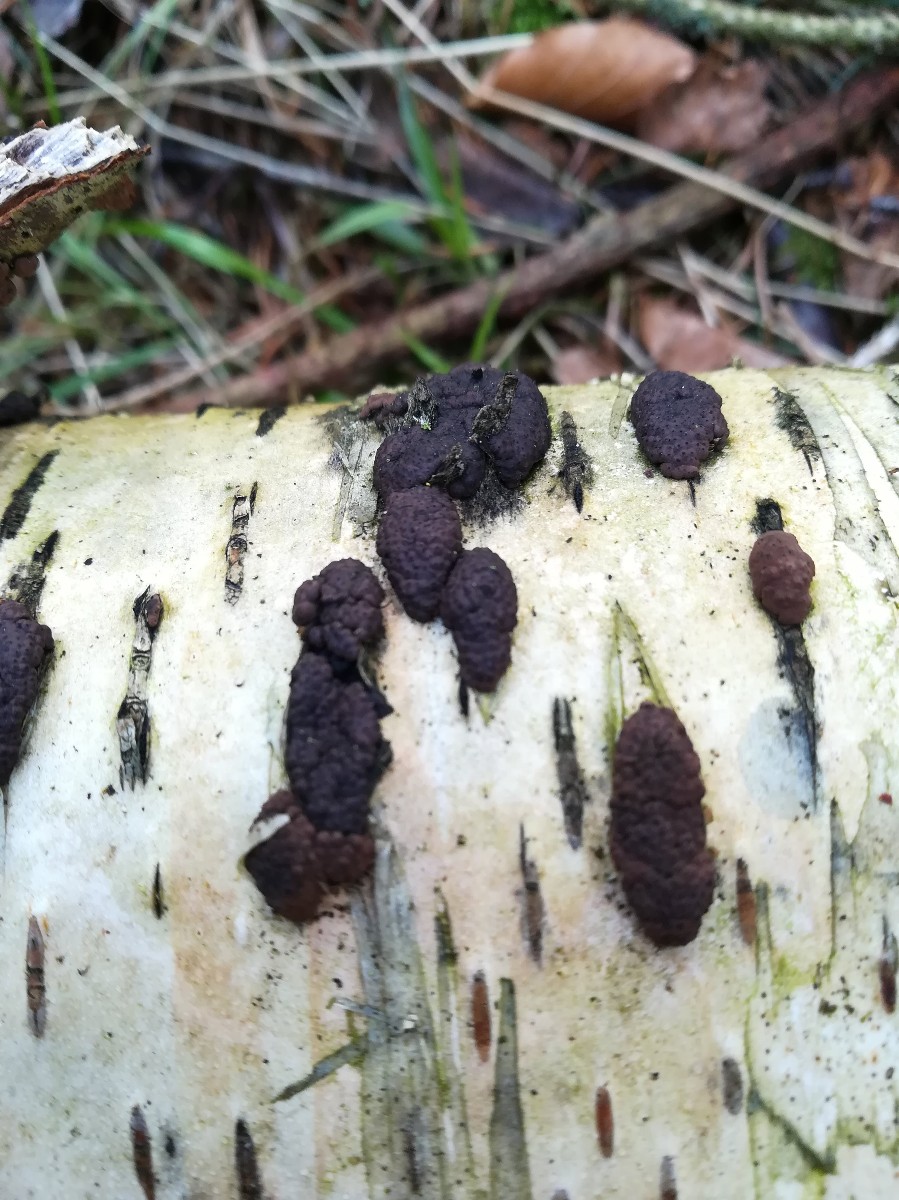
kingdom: Fungi
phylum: Ascomycota
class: Sordariomycetes
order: Xylariales
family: Hypoxylaceae
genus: Jackrogersella
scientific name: Jackrogersella multiformis
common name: foranderlig kulbær
